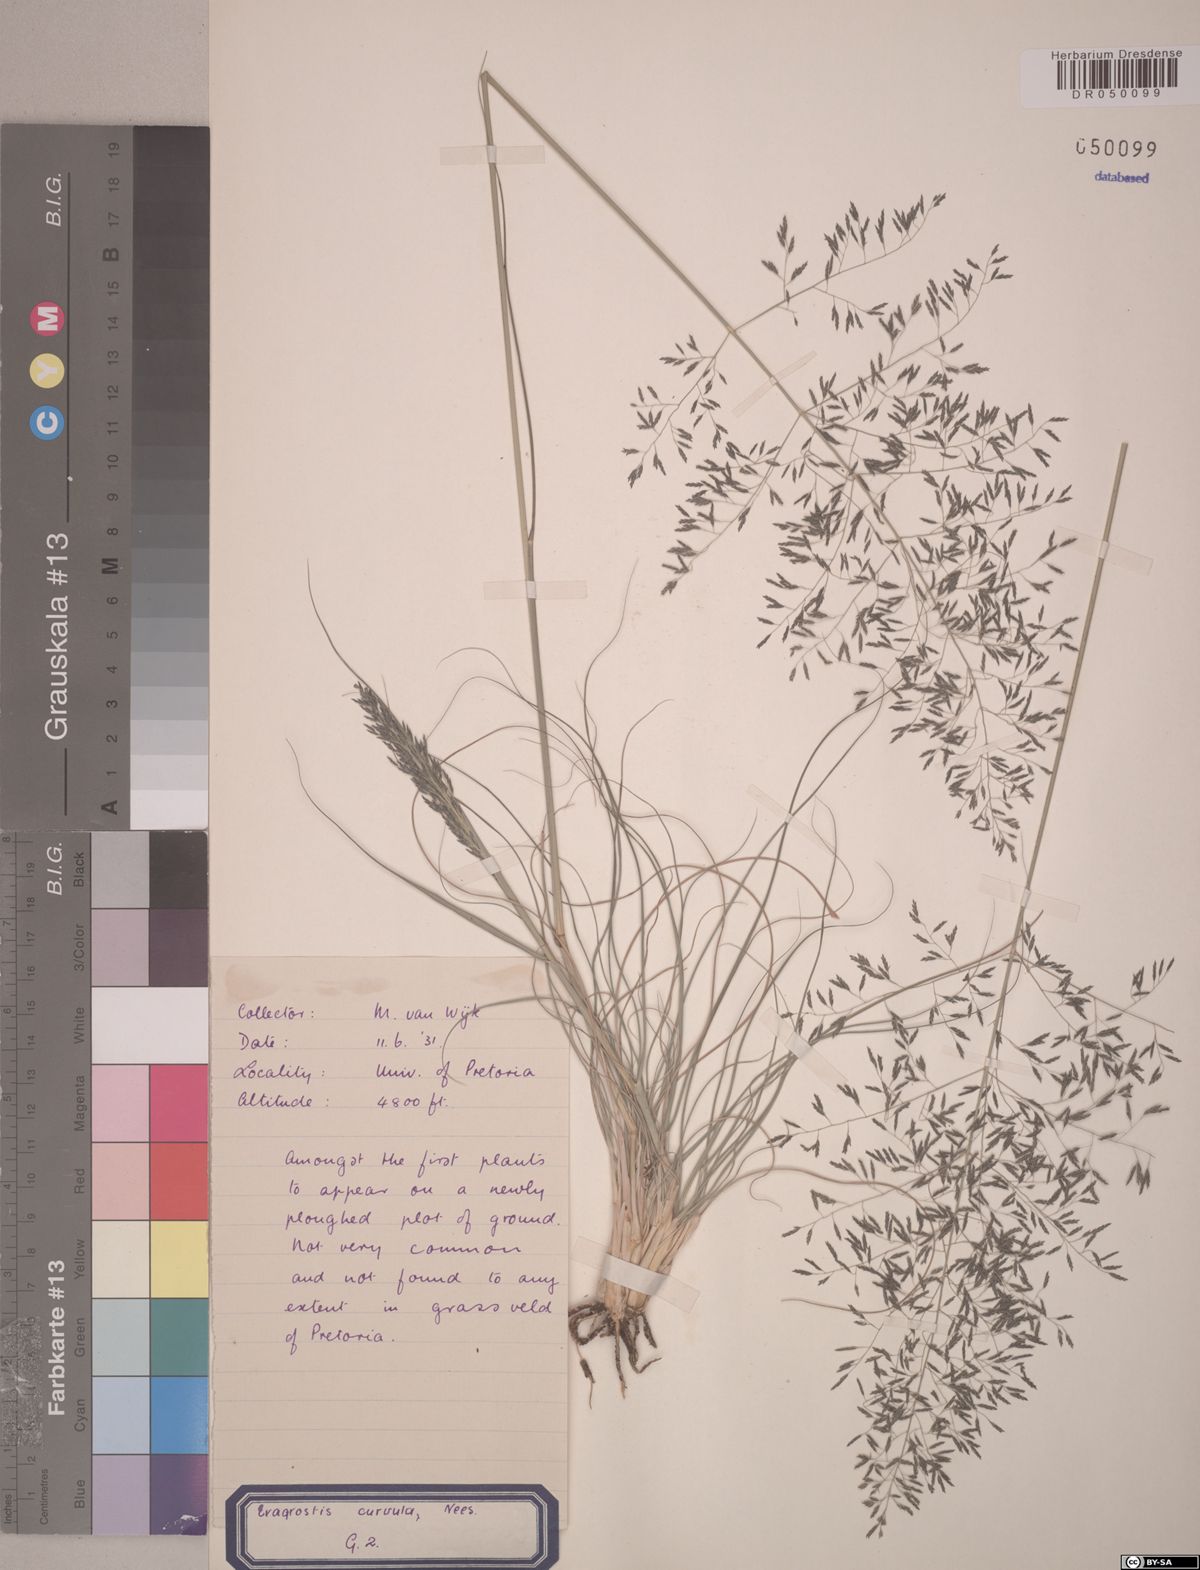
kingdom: Plantae
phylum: Tracheophyta
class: Liliopsida
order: Poales
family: Poaceae
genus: Eragrostis
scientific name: Eragrostis curvula
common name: African love-grass
